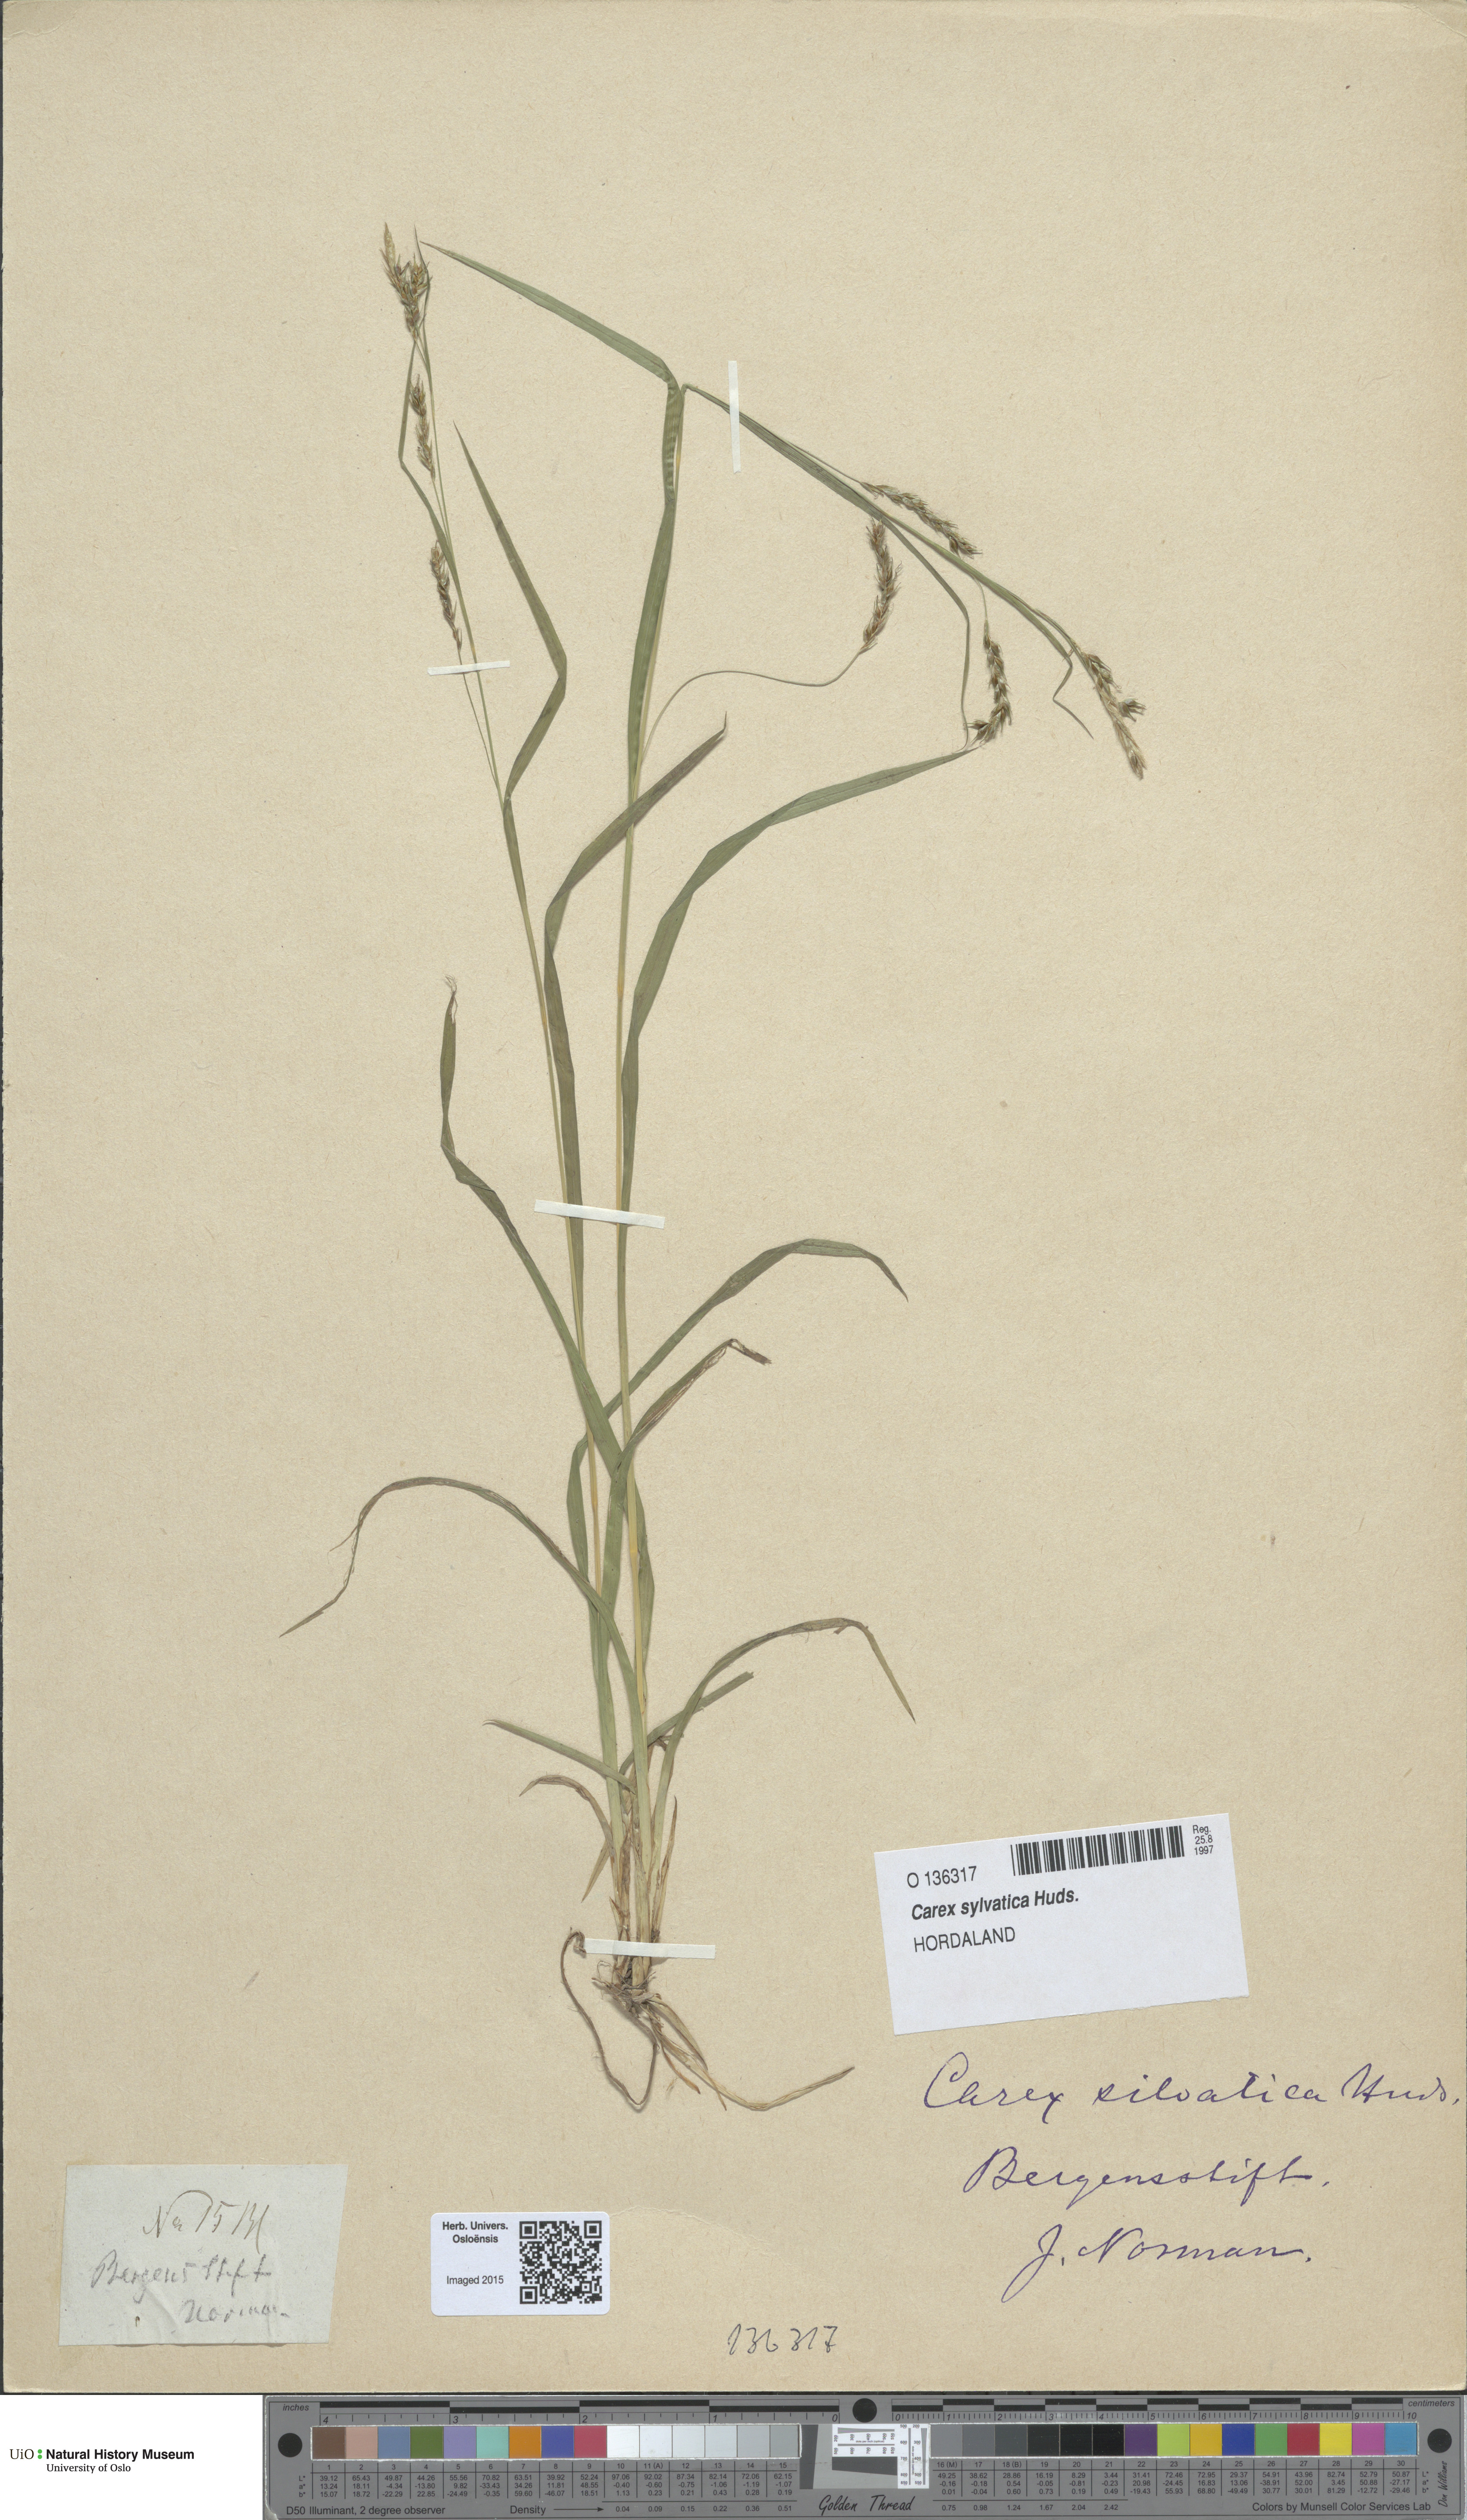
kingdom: Plantae
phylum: Tracheophyta
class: Liliopsida
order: Poales
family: Cyperaceae
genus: Carex
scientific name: Carex sylvatica
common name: Wood-sedge
